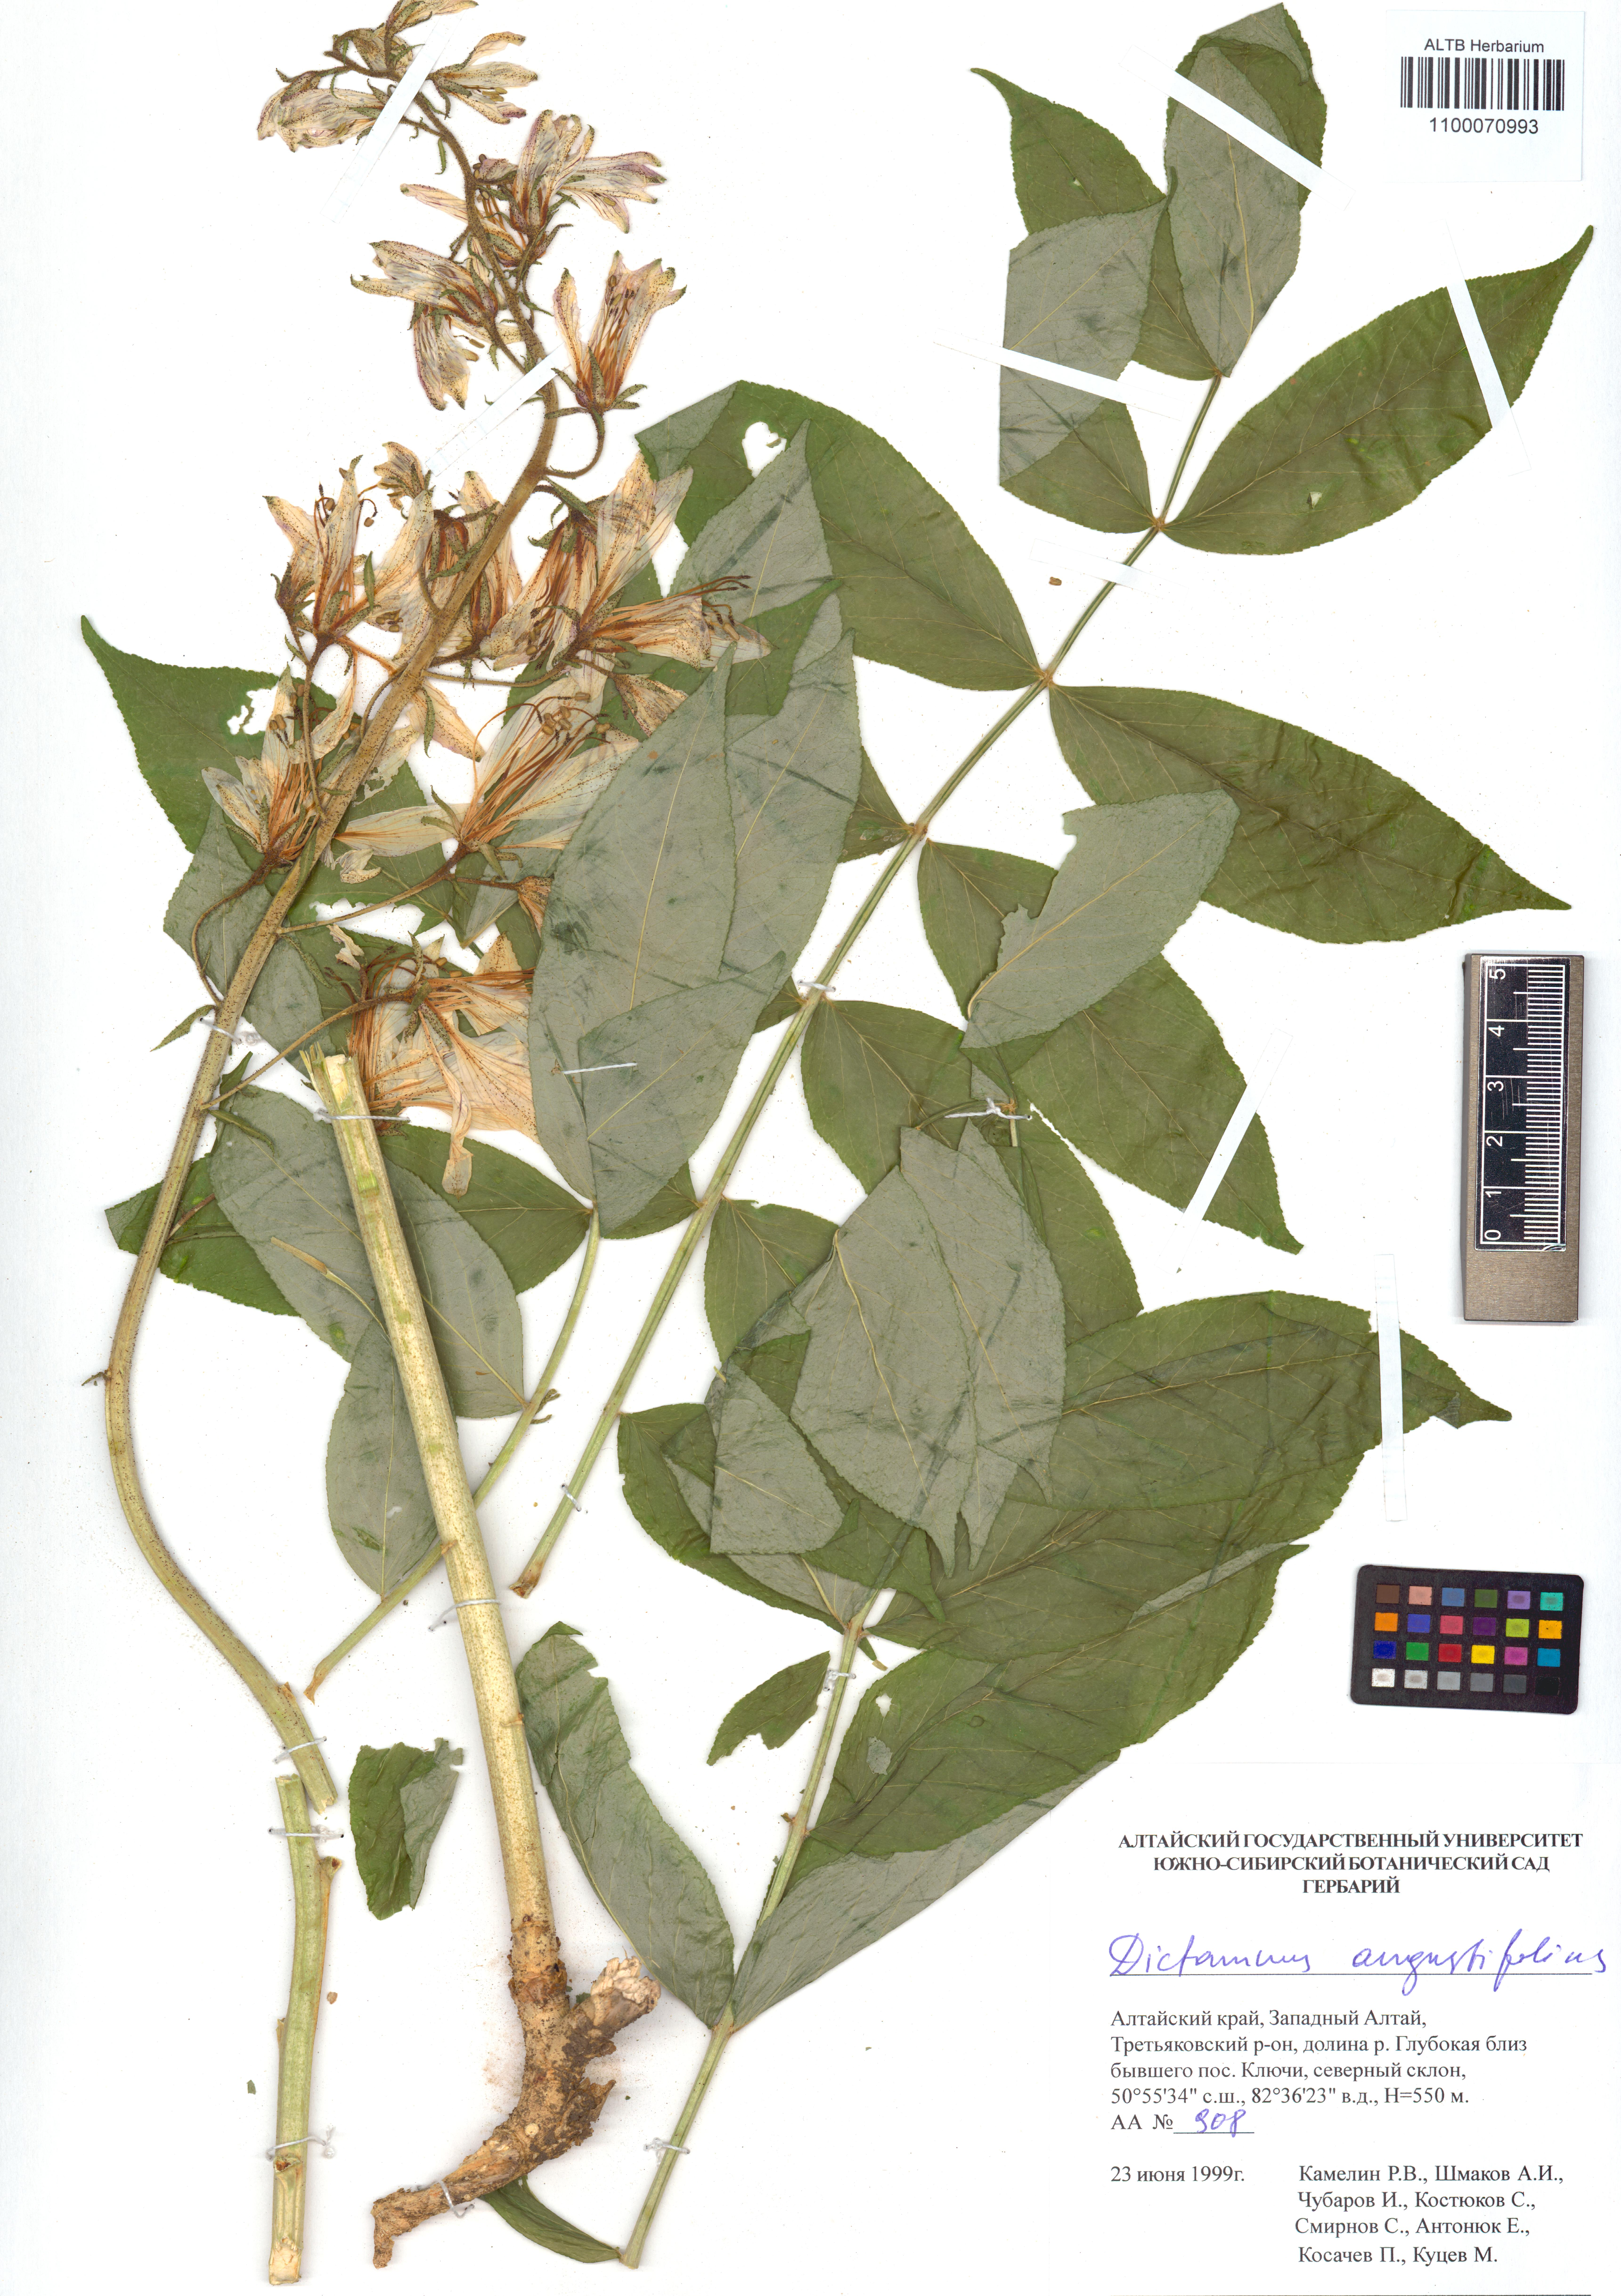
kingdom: Plantae
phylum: Tracheophyta
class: Magnoliopsida
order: Sapindales
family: Rutaceae
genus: Dictamnus
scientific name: Dictamnus albus
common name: Gasplant
